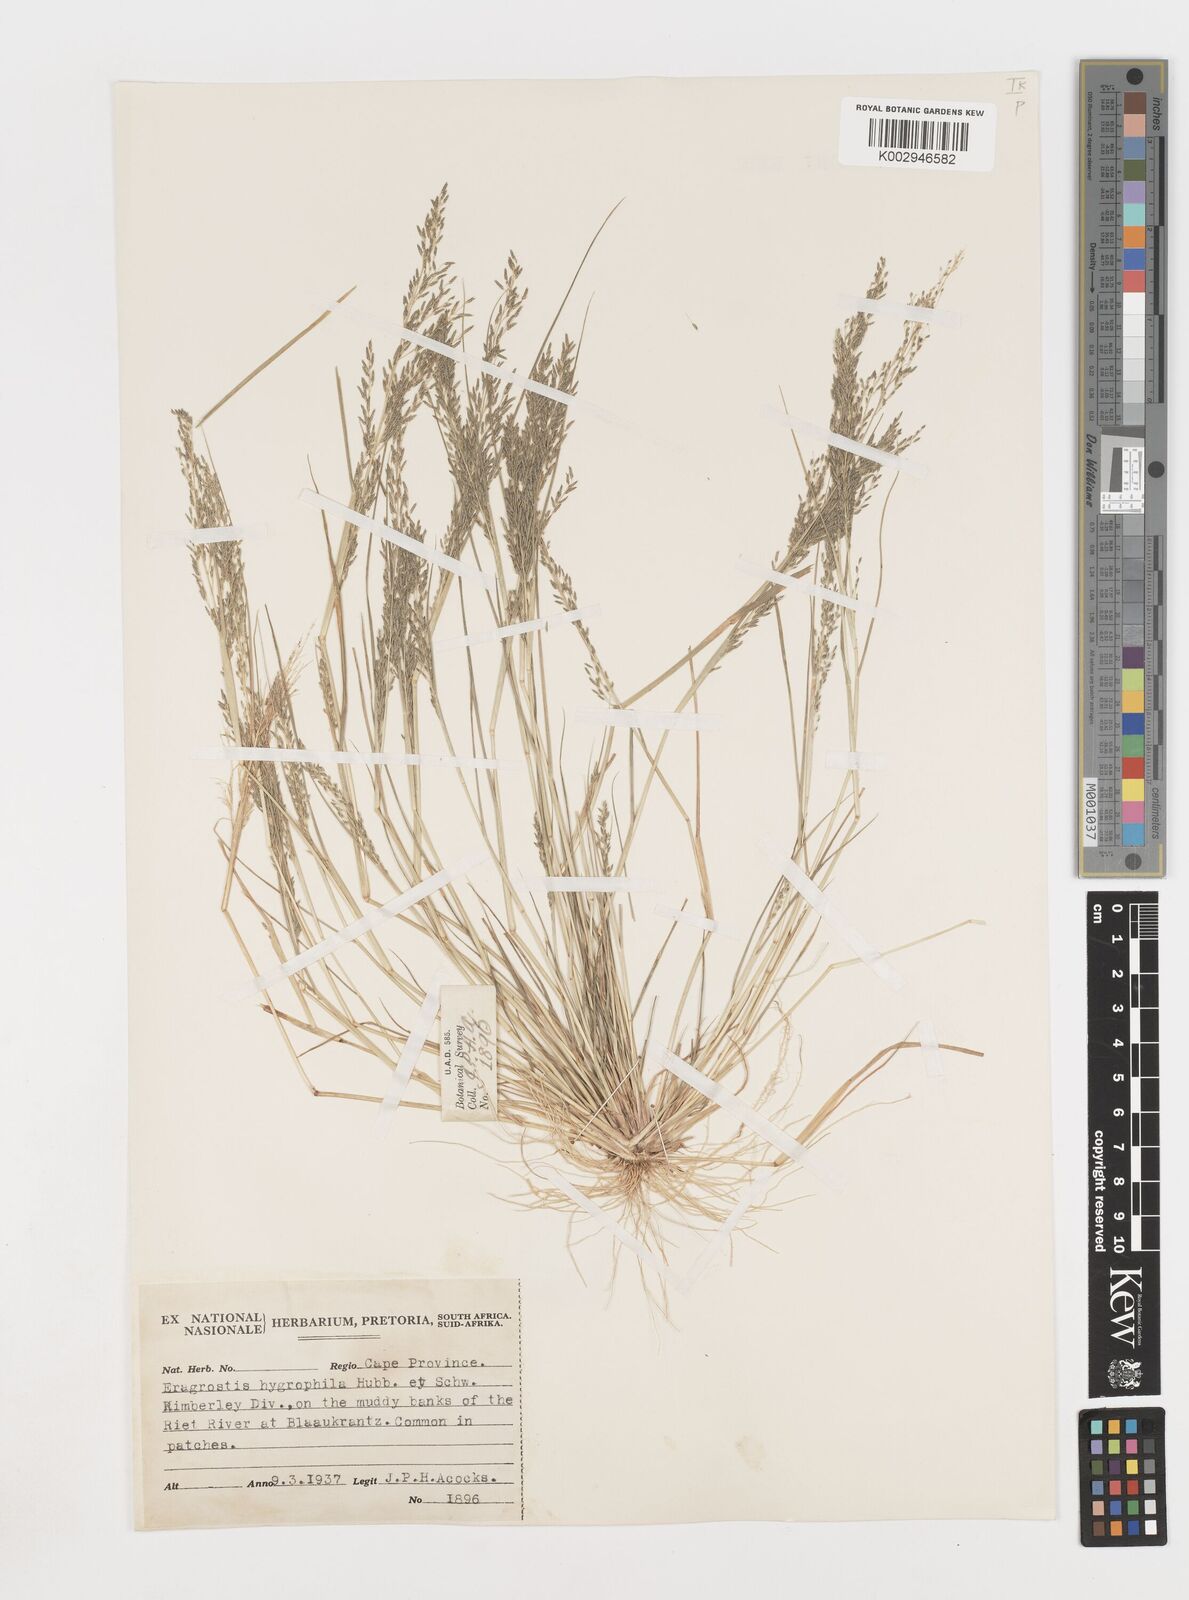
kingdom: Plantae
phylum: Tracheophyta
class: Liliopsida
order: Poales
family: Poaceae
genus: Eragrostis
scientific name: Eragrostis homomalla
